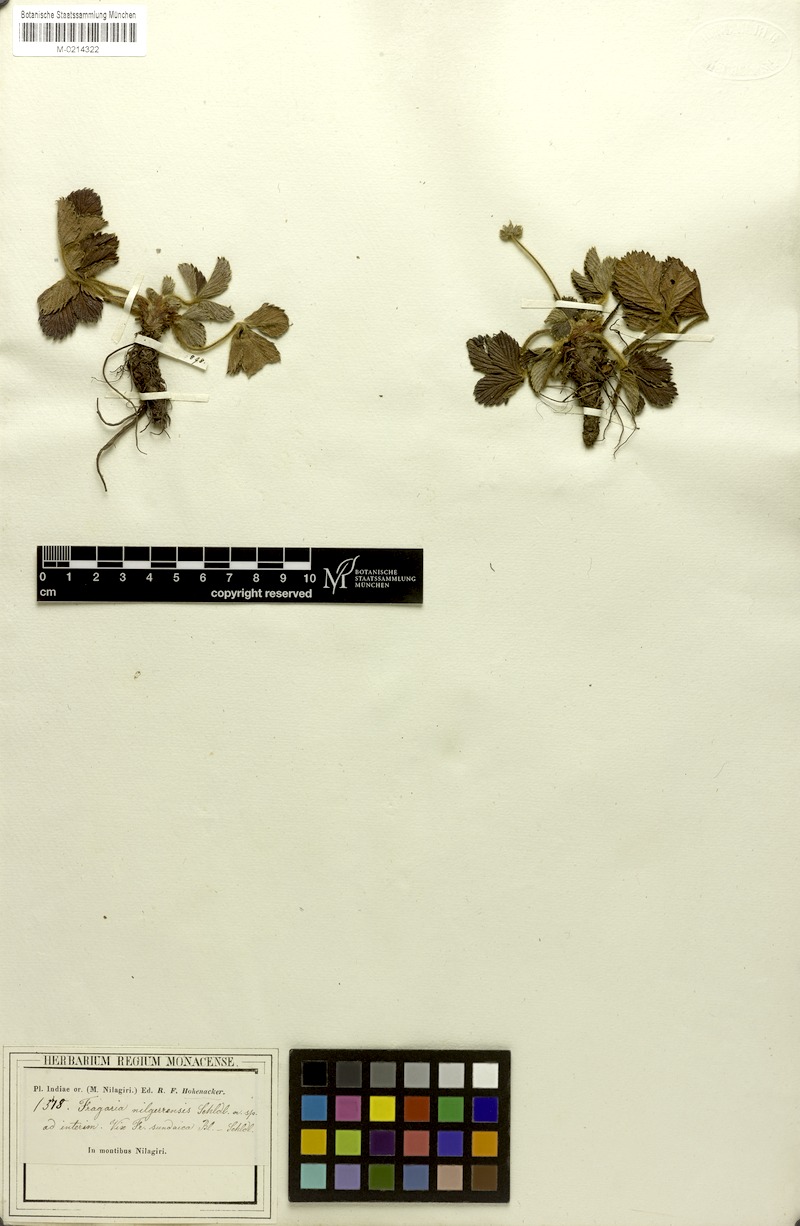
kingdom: Plantae
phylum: Tracheophyta
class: Magnoliopsida
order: Rosales
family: Rosaceae
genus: Fragaria
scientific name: Fragaria nilgerrensis
